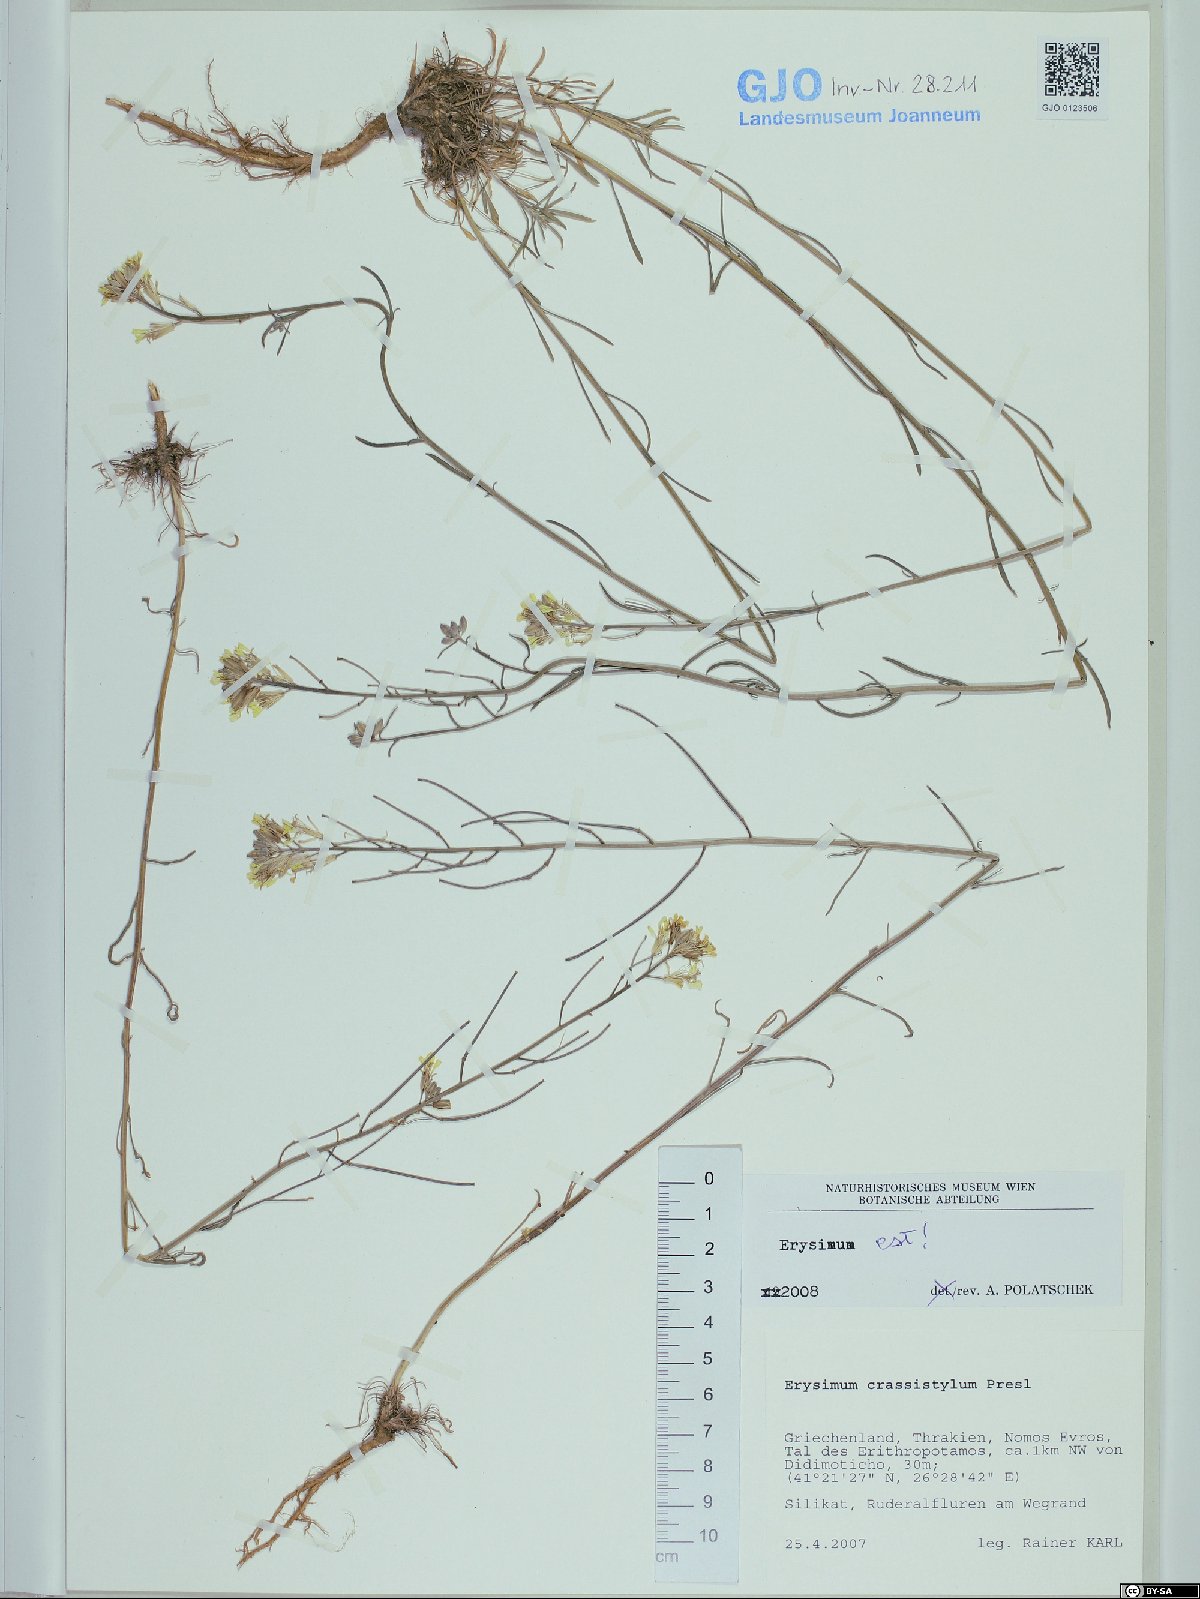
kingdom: Plantae
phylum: Tracheophyta
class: Magnoliopsida
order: Brassicales
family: Brassicaceae
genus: Erysimum
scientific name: Erysimum crassistylum
